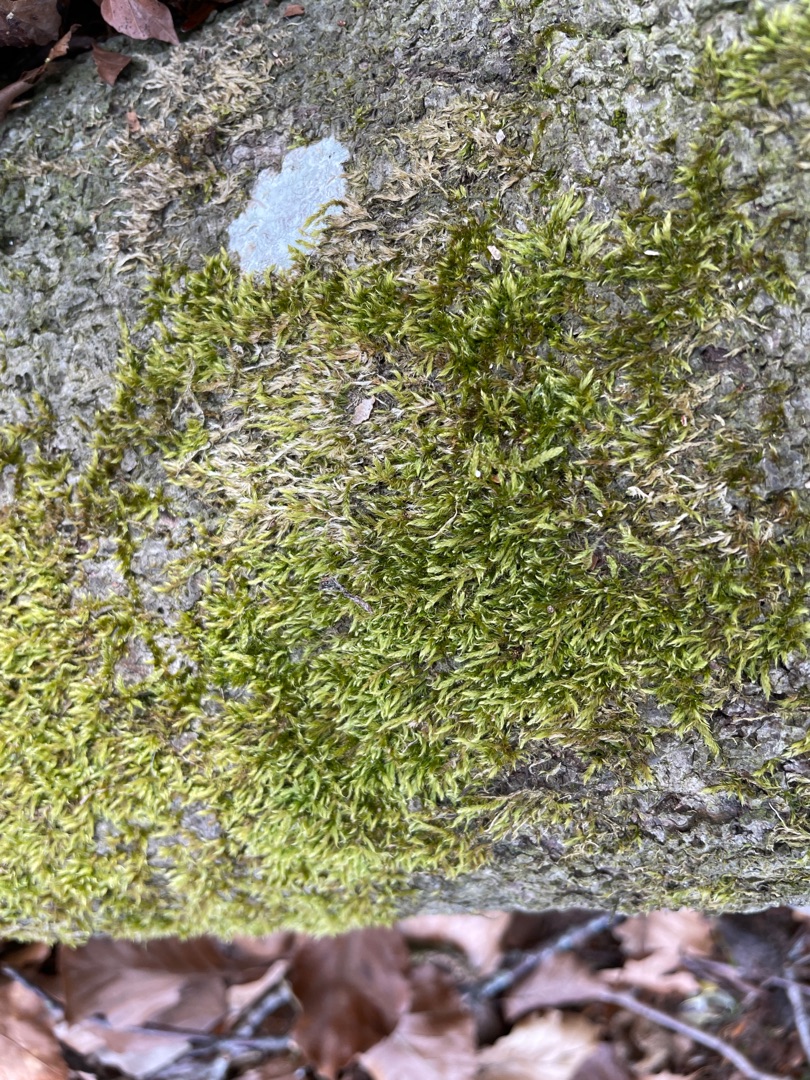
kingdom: Plantae
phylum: Bryophyta
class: Bryopsida
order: Hypnales
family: Hypnaceae
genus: Hypnum
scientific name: Hypnum
